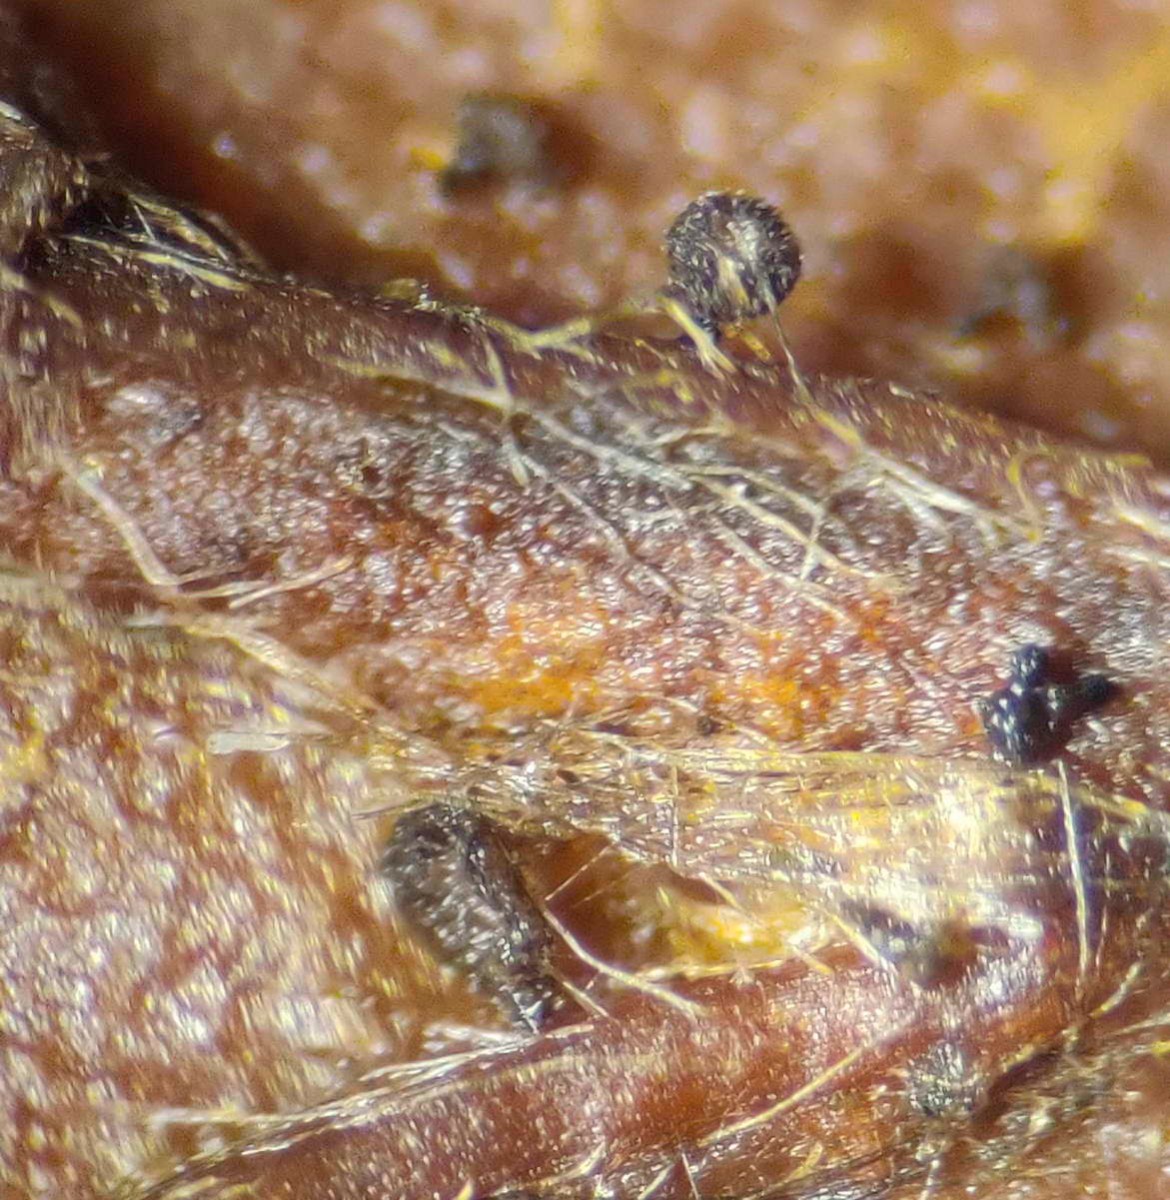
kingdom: Fungi
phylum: Ascomycota
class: Leotiomycetes
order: Helotiales
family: Lachnaceae
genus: Brunnipila
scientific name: Brunnipila fuscescens
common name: bøge-frynseskive
